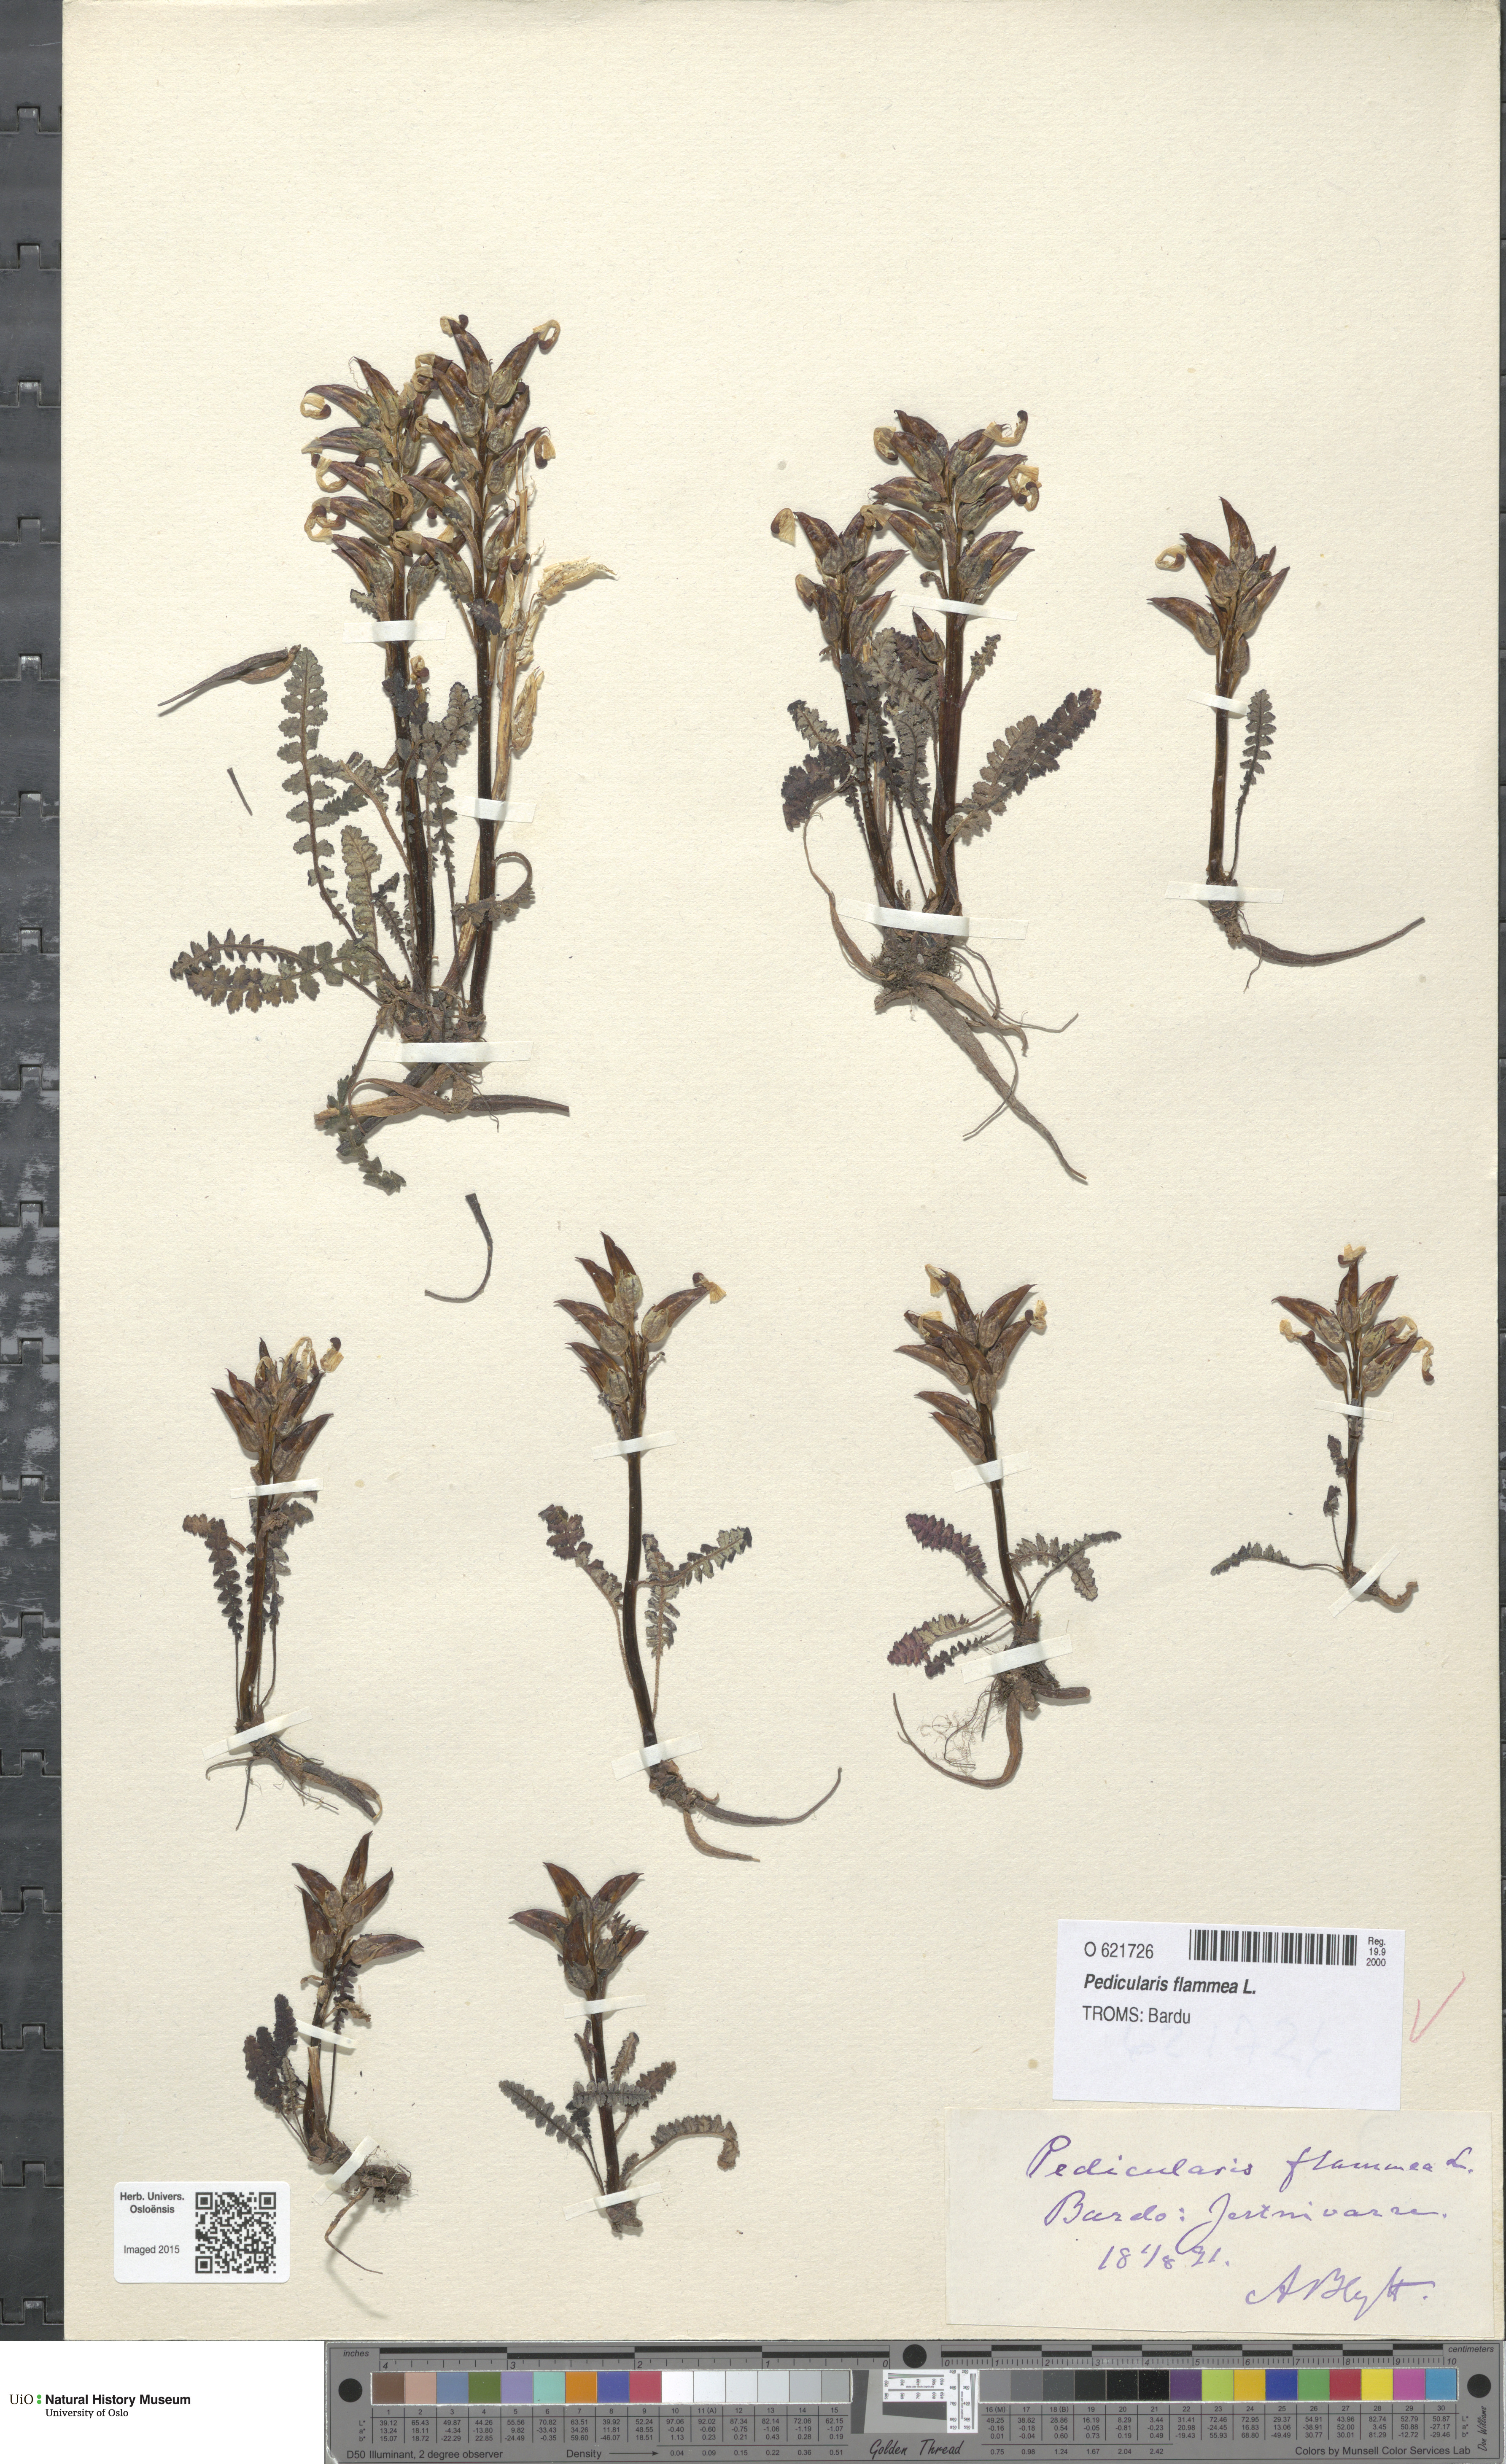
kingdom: Plantae
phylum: Tracheophyta
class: Magnoliopsida
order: Lamiales
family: Orobanchaceae
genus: Pedicularis
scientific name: Pedicularis flammea
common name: Flame-coloured lousewort
